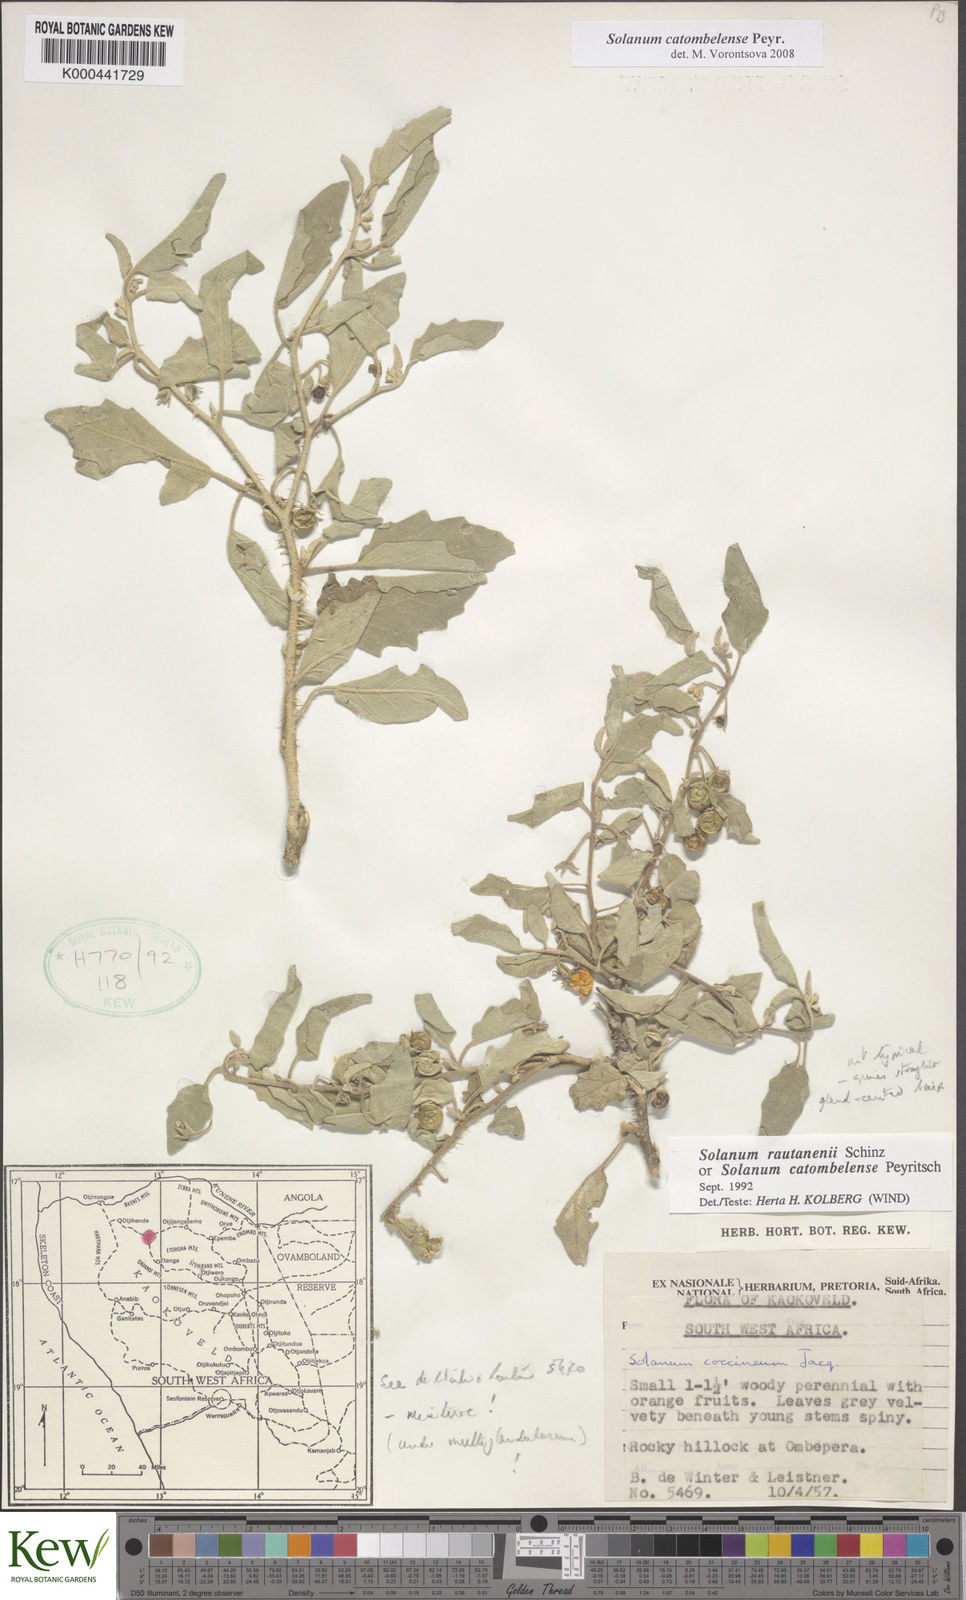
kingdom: Plantae
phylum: Tracheophyta
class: Magnoliopsida
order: Solanales
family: Solanaceae
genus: Solanum
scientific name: Solanum catombelense
